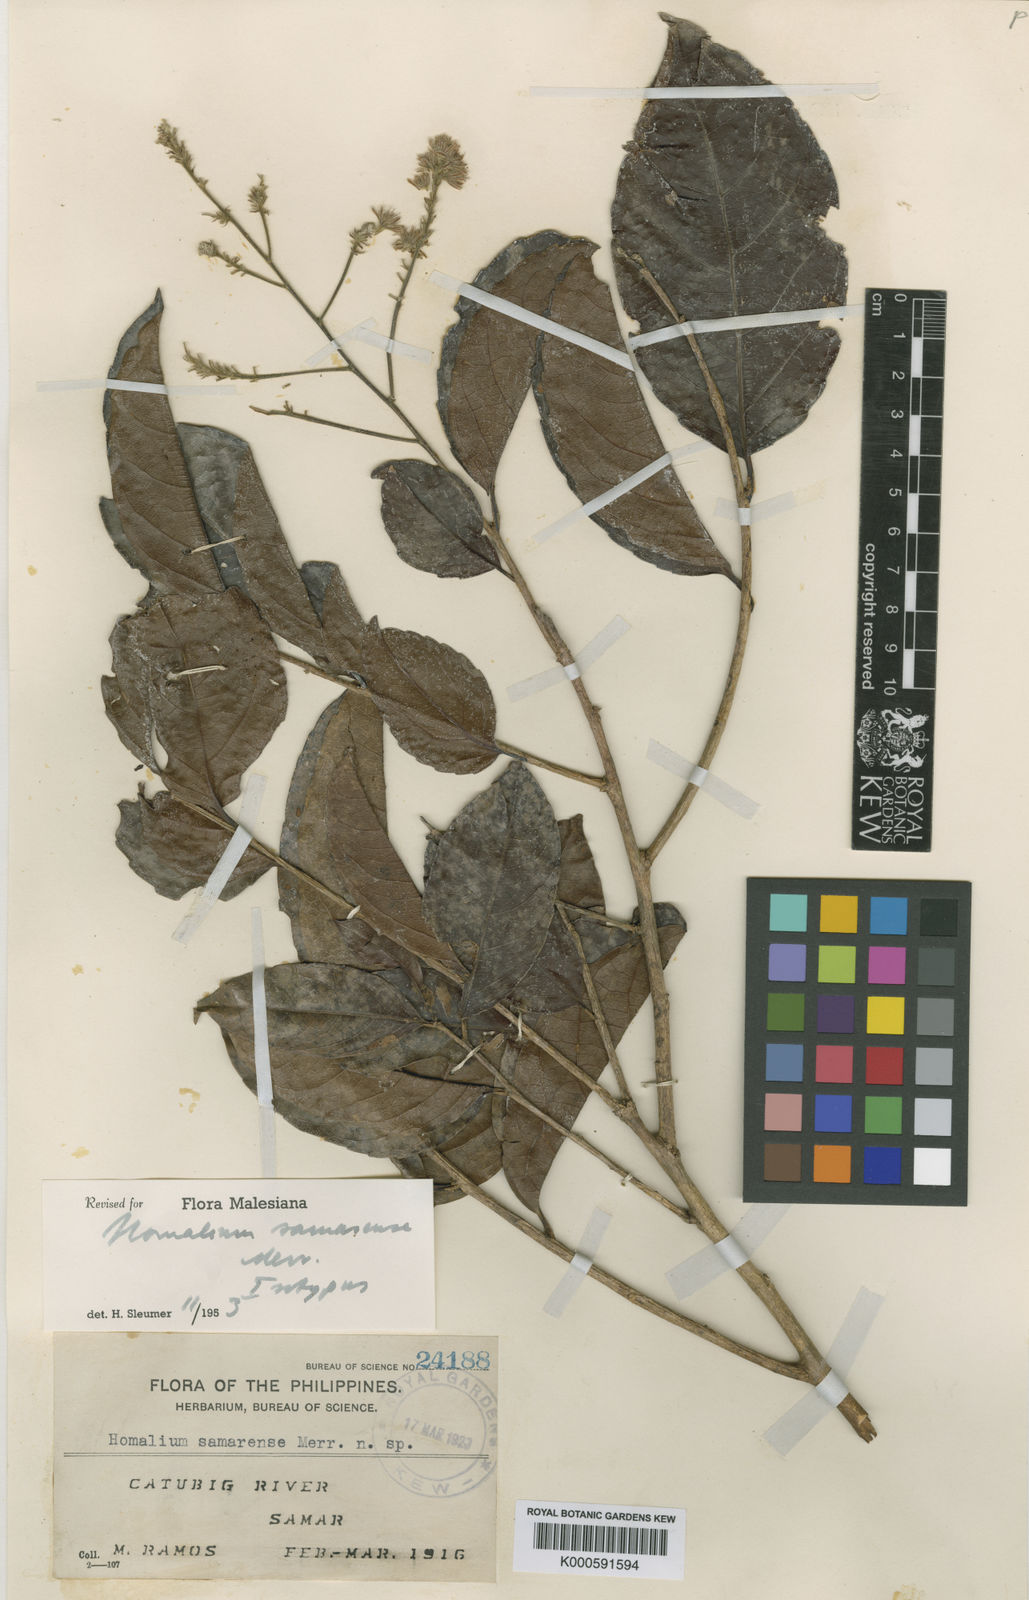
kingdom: Plantae
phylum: Tracheophyta
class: Magnoliopsida
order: Malpighiales
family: Salicaceae
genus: Homalium
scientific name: Homalium samarense
